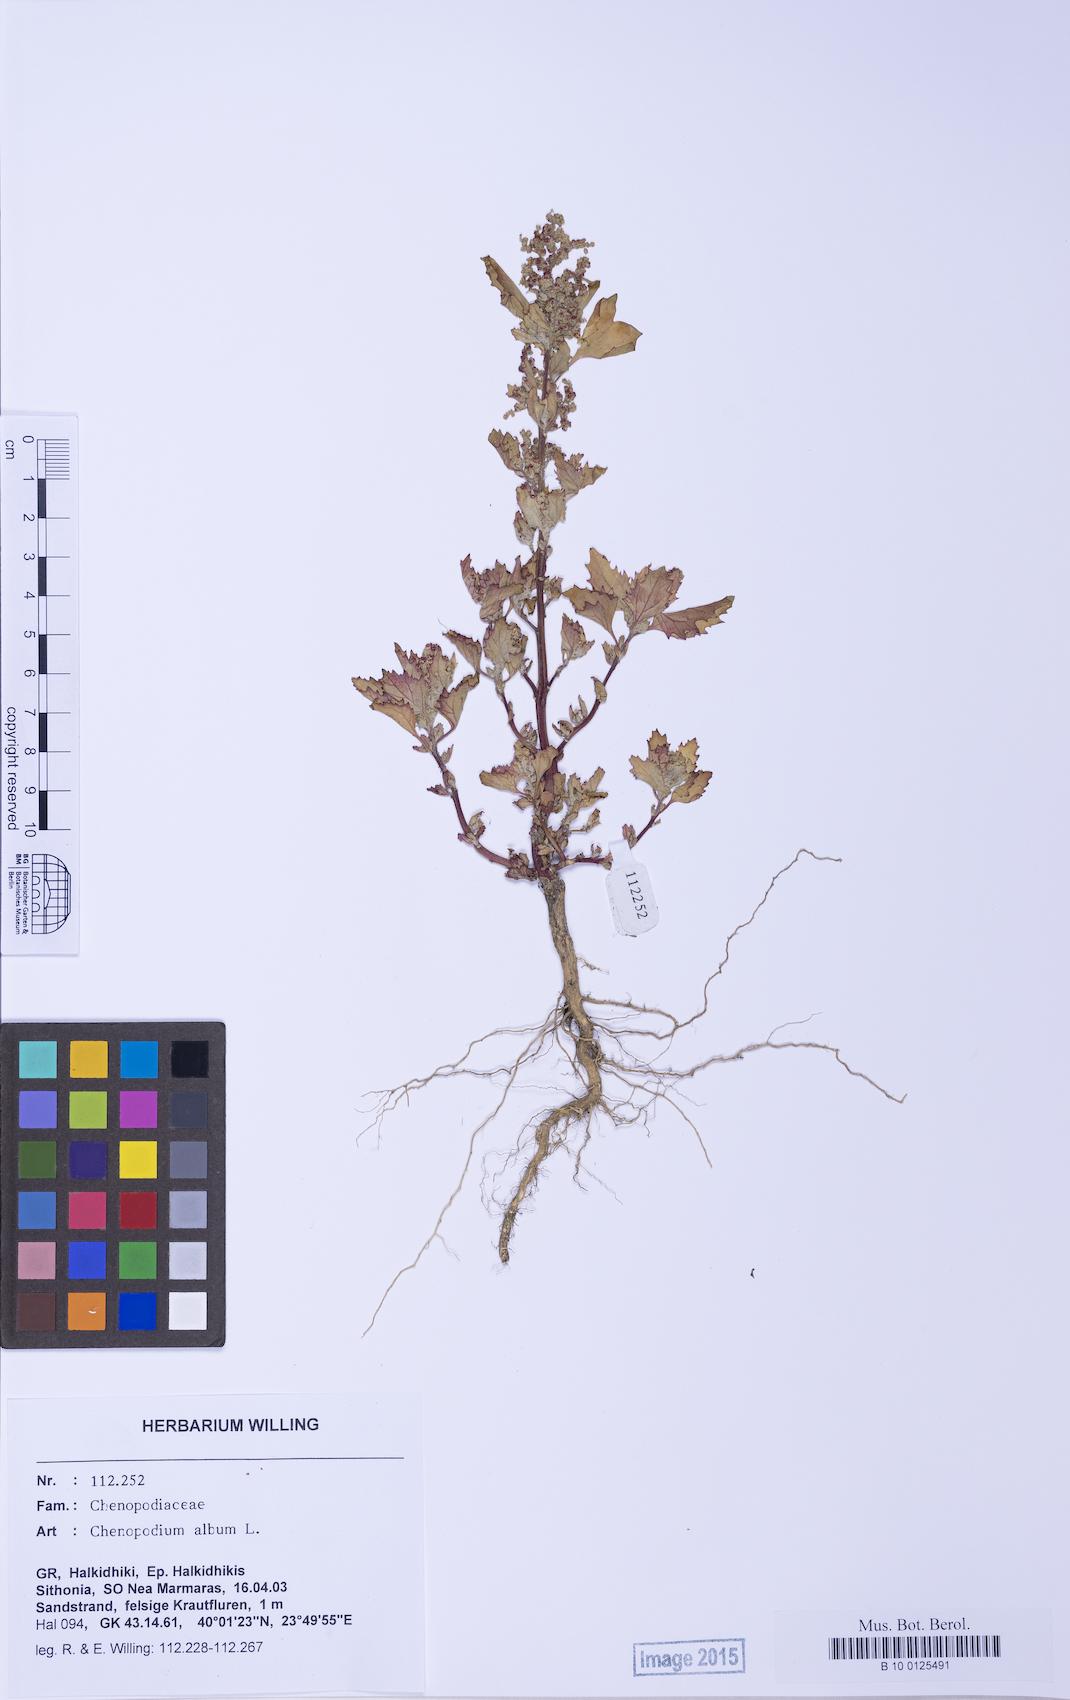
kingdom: Plantae
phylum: Tracheophyta
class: Magnoliopsida
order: Caryophyllales
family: Amaranthaceae
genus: Chenopodium
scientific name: Chenopodium album
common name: Fat-hen
